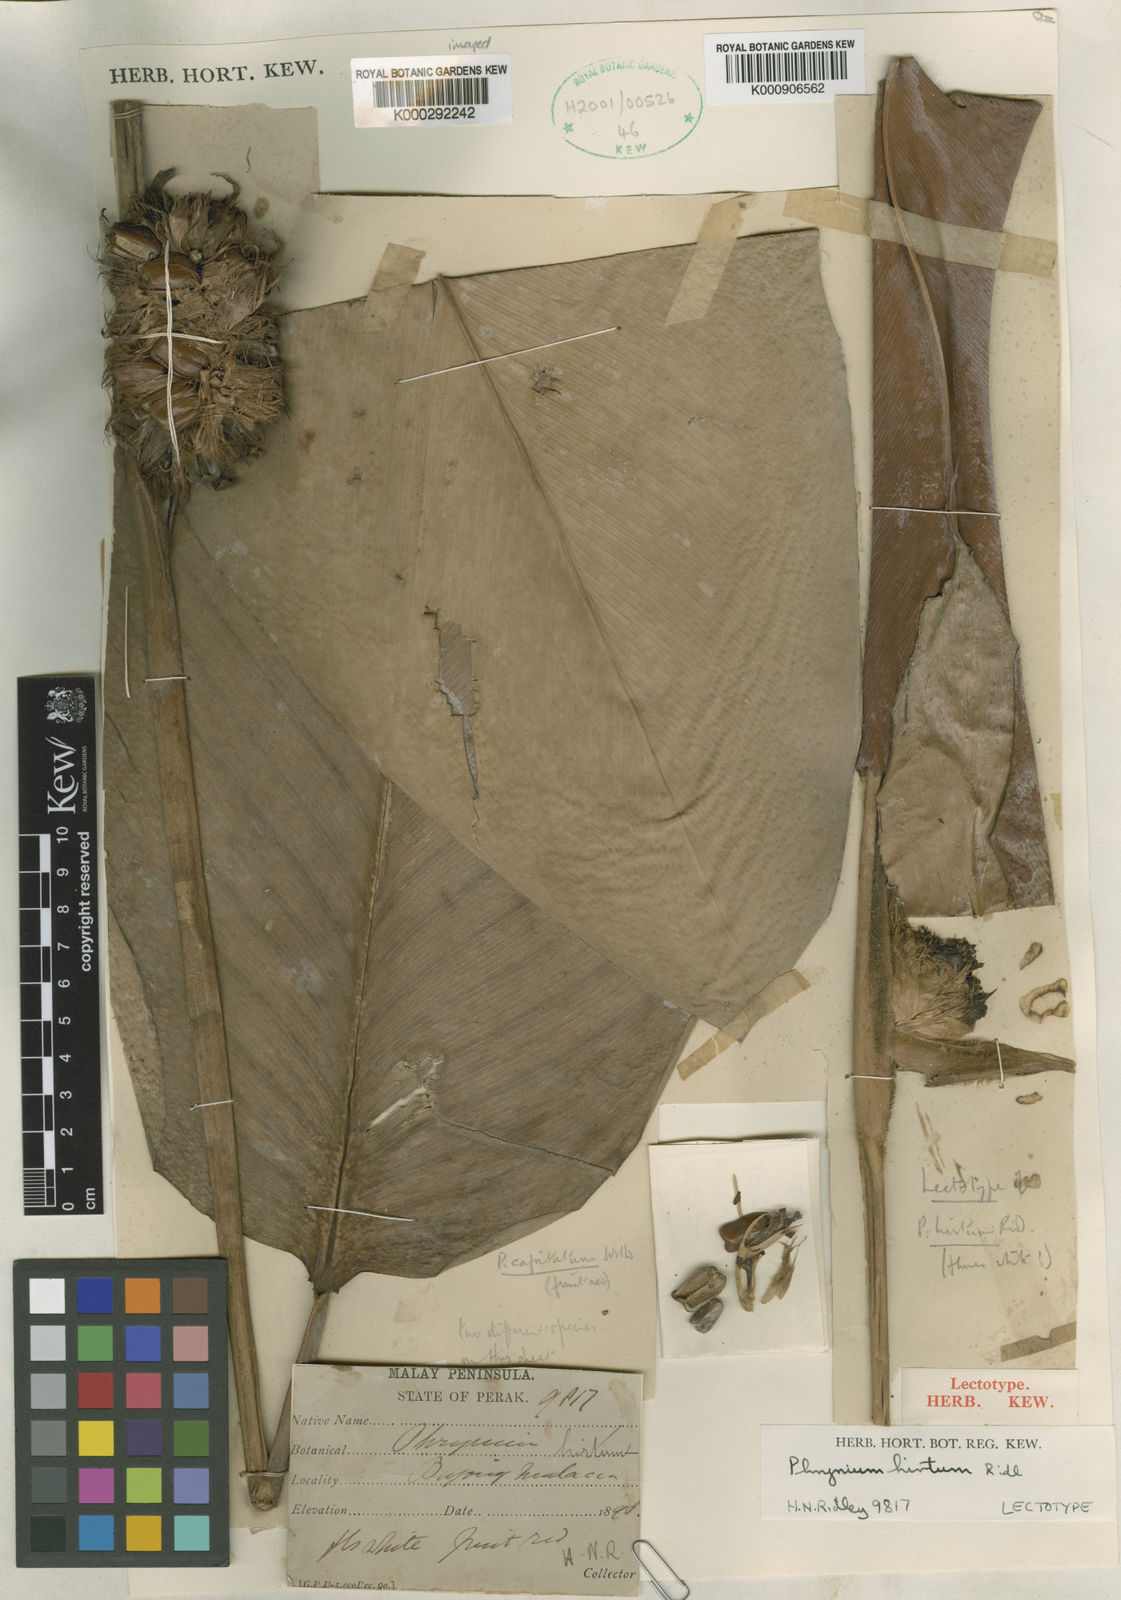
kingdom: Plantae
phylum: Tracheophyta
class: Liliopsida
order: Zingiberales
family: Marantaceae
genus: Phrynium
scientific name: Phrynium hirtum
